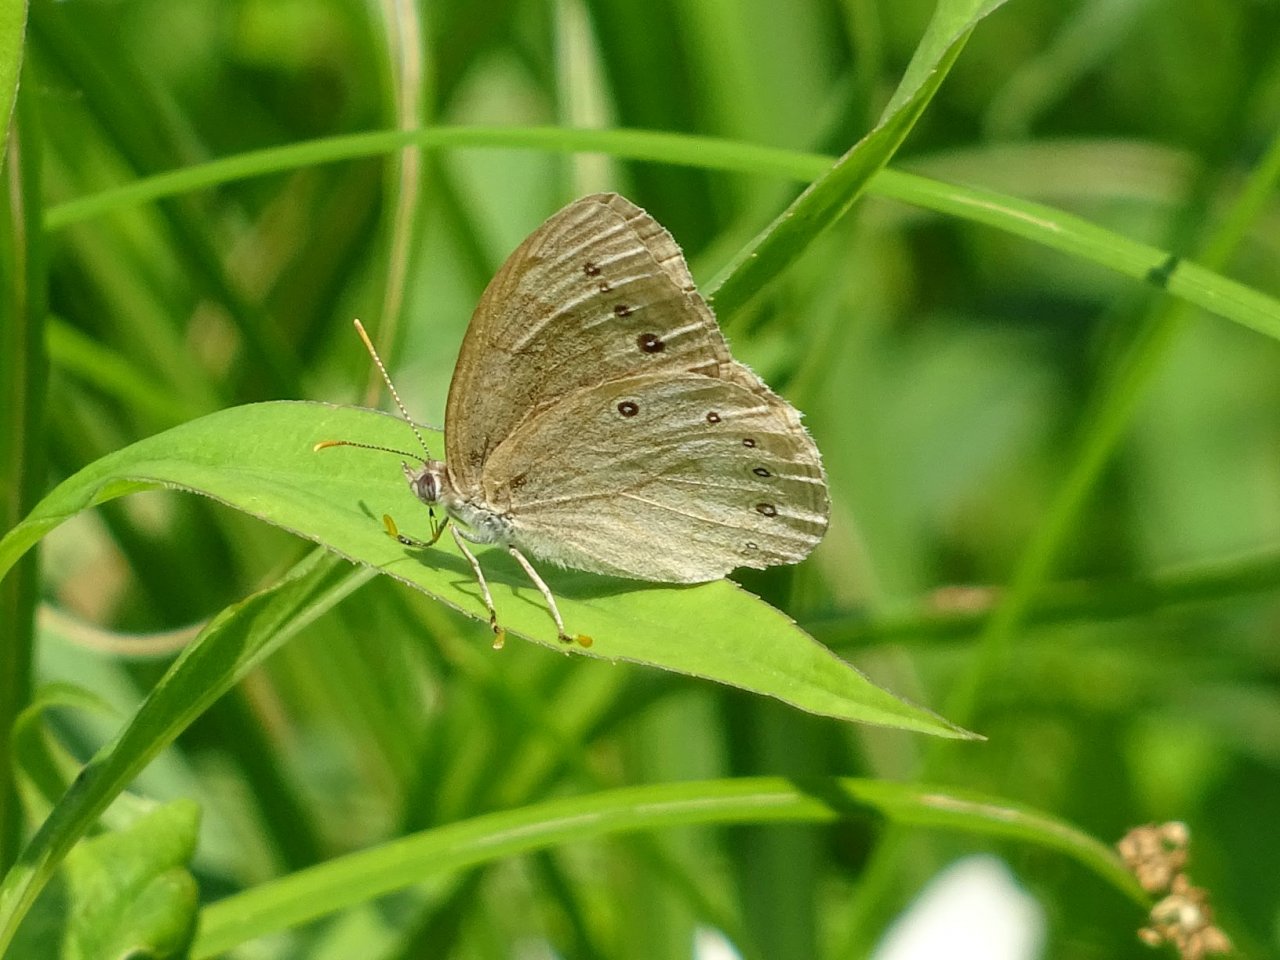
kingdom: Animalia
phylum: Arthropoda
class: Insecta
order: Lepidoptera
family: Nymphalidae
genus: Lethe
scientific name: Lethe
